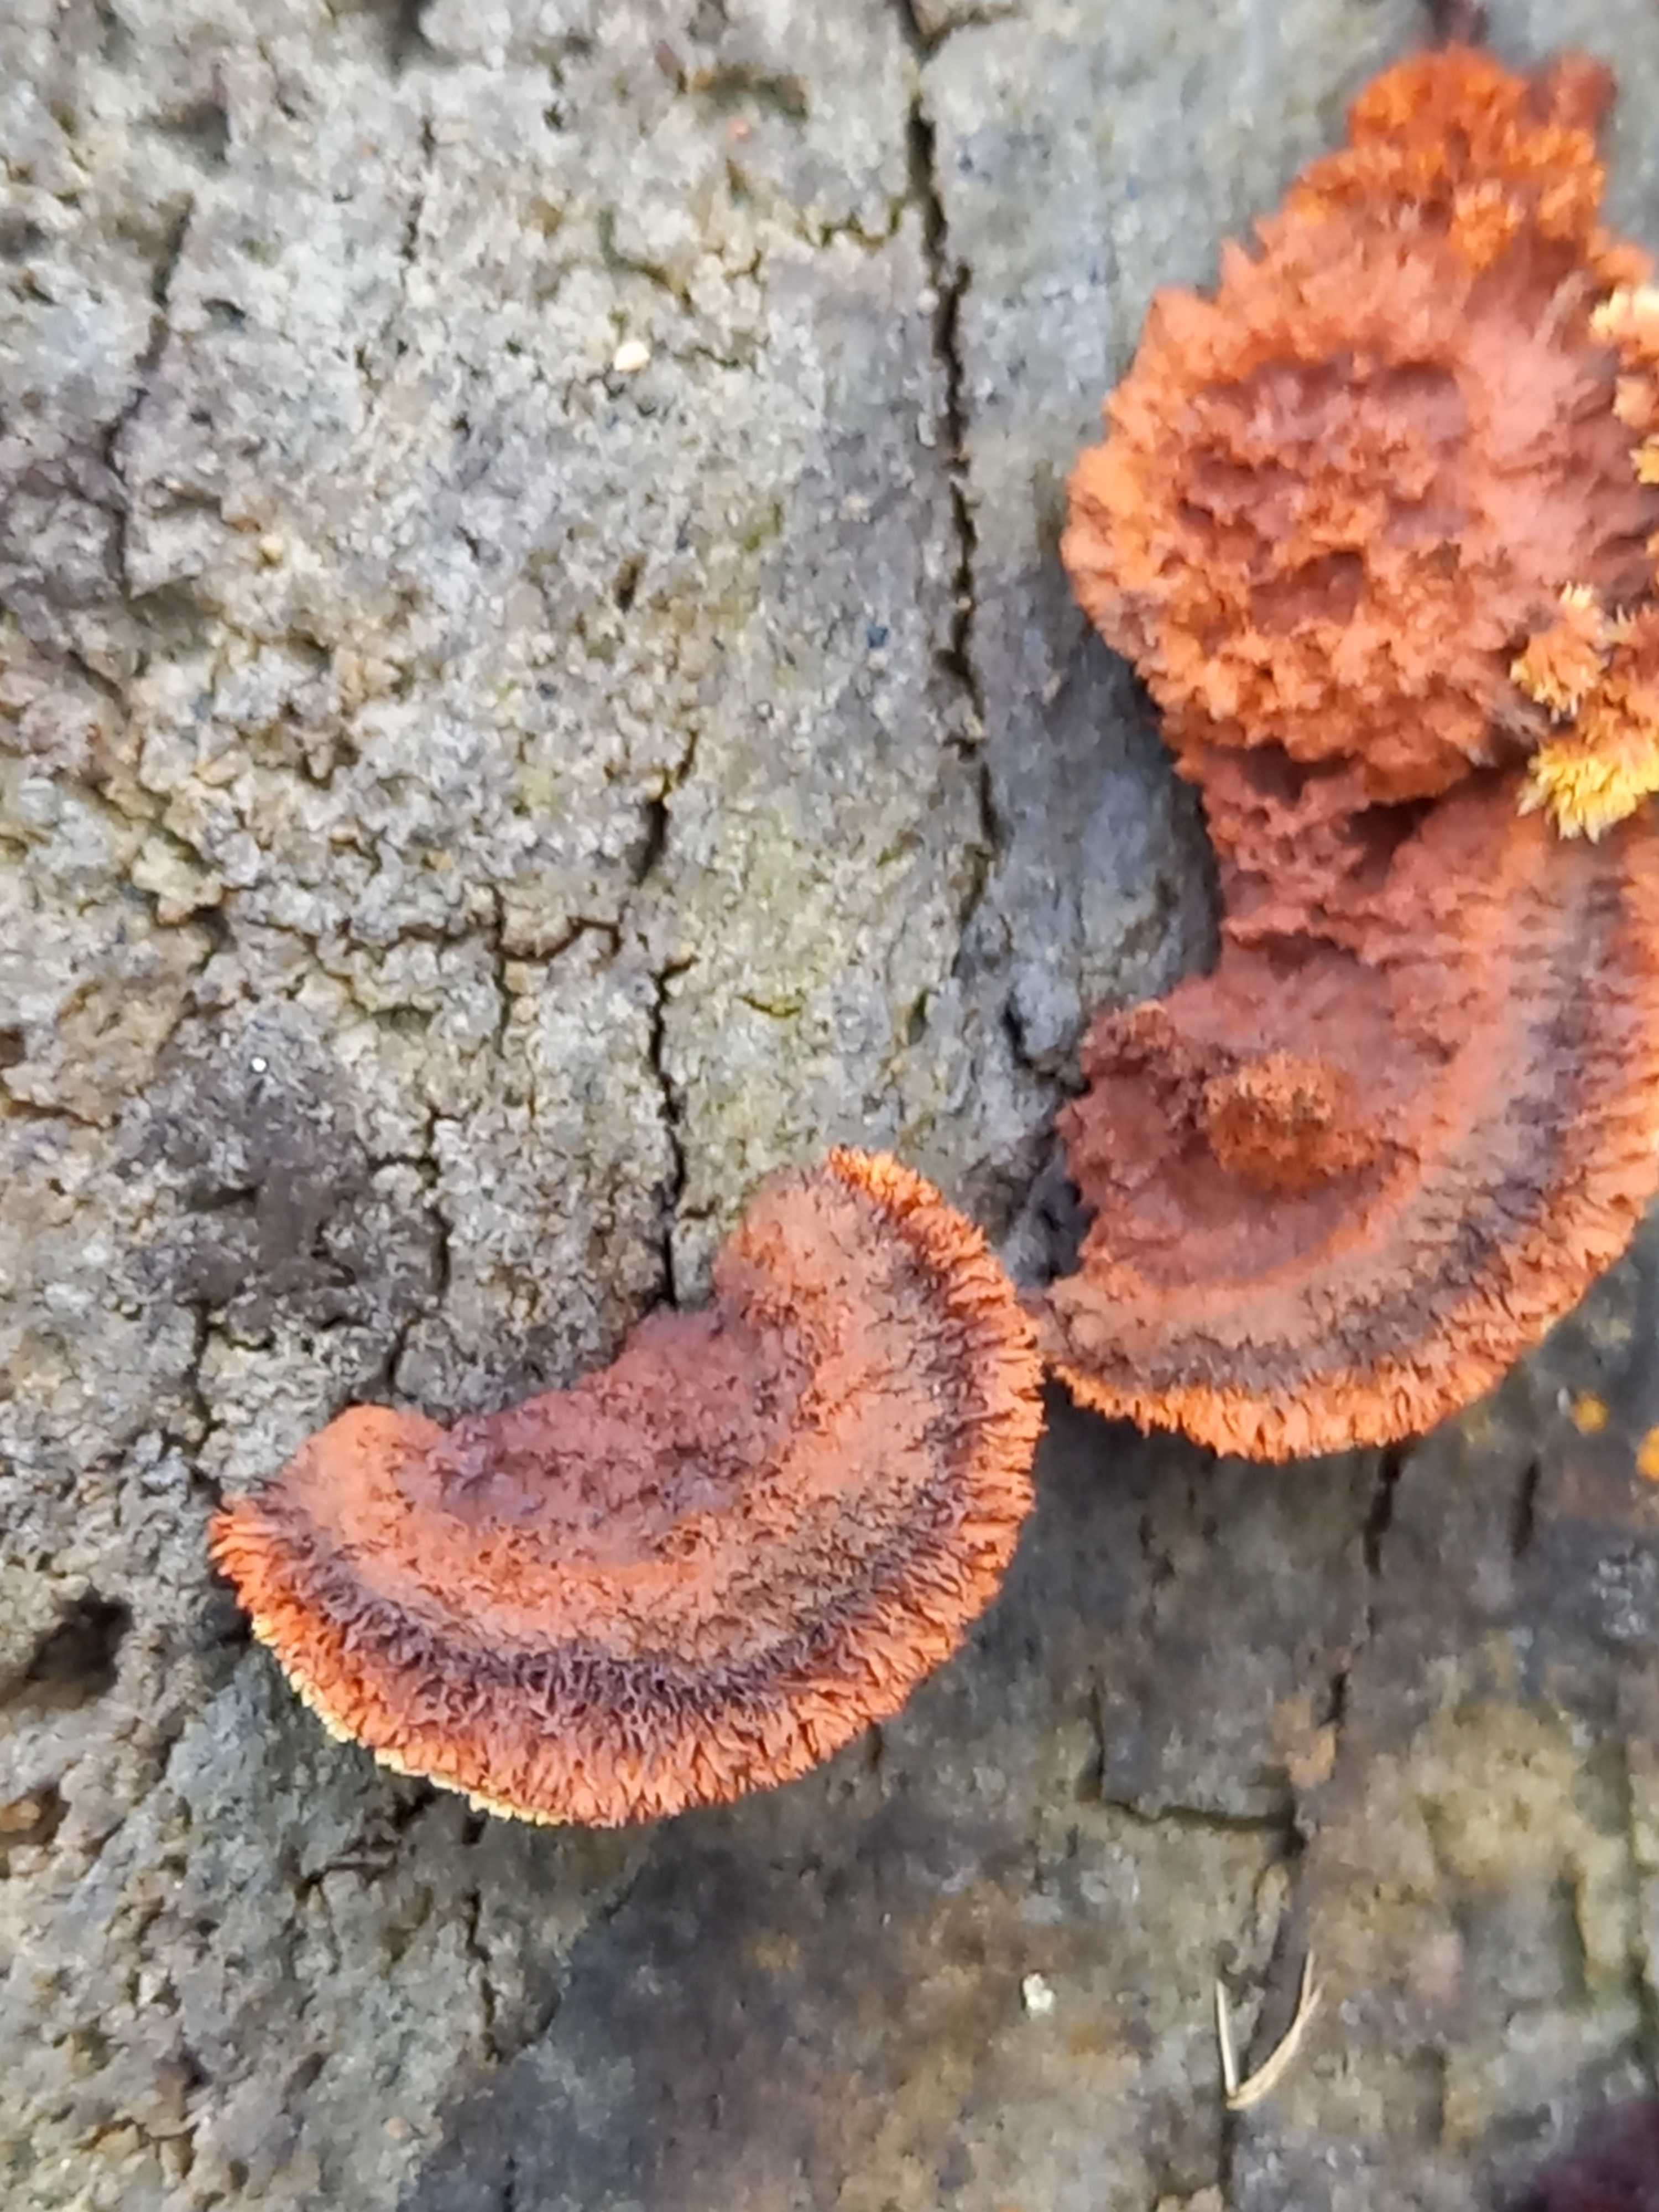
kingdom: Fungi
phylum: Basidiomycota
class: Agaricomycetes
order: Gloeophyllales
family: Gloeophyllaceae
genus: Gloeophyllum
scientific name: Gloeophyllum sepiarium
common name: fyrre-korkhat
